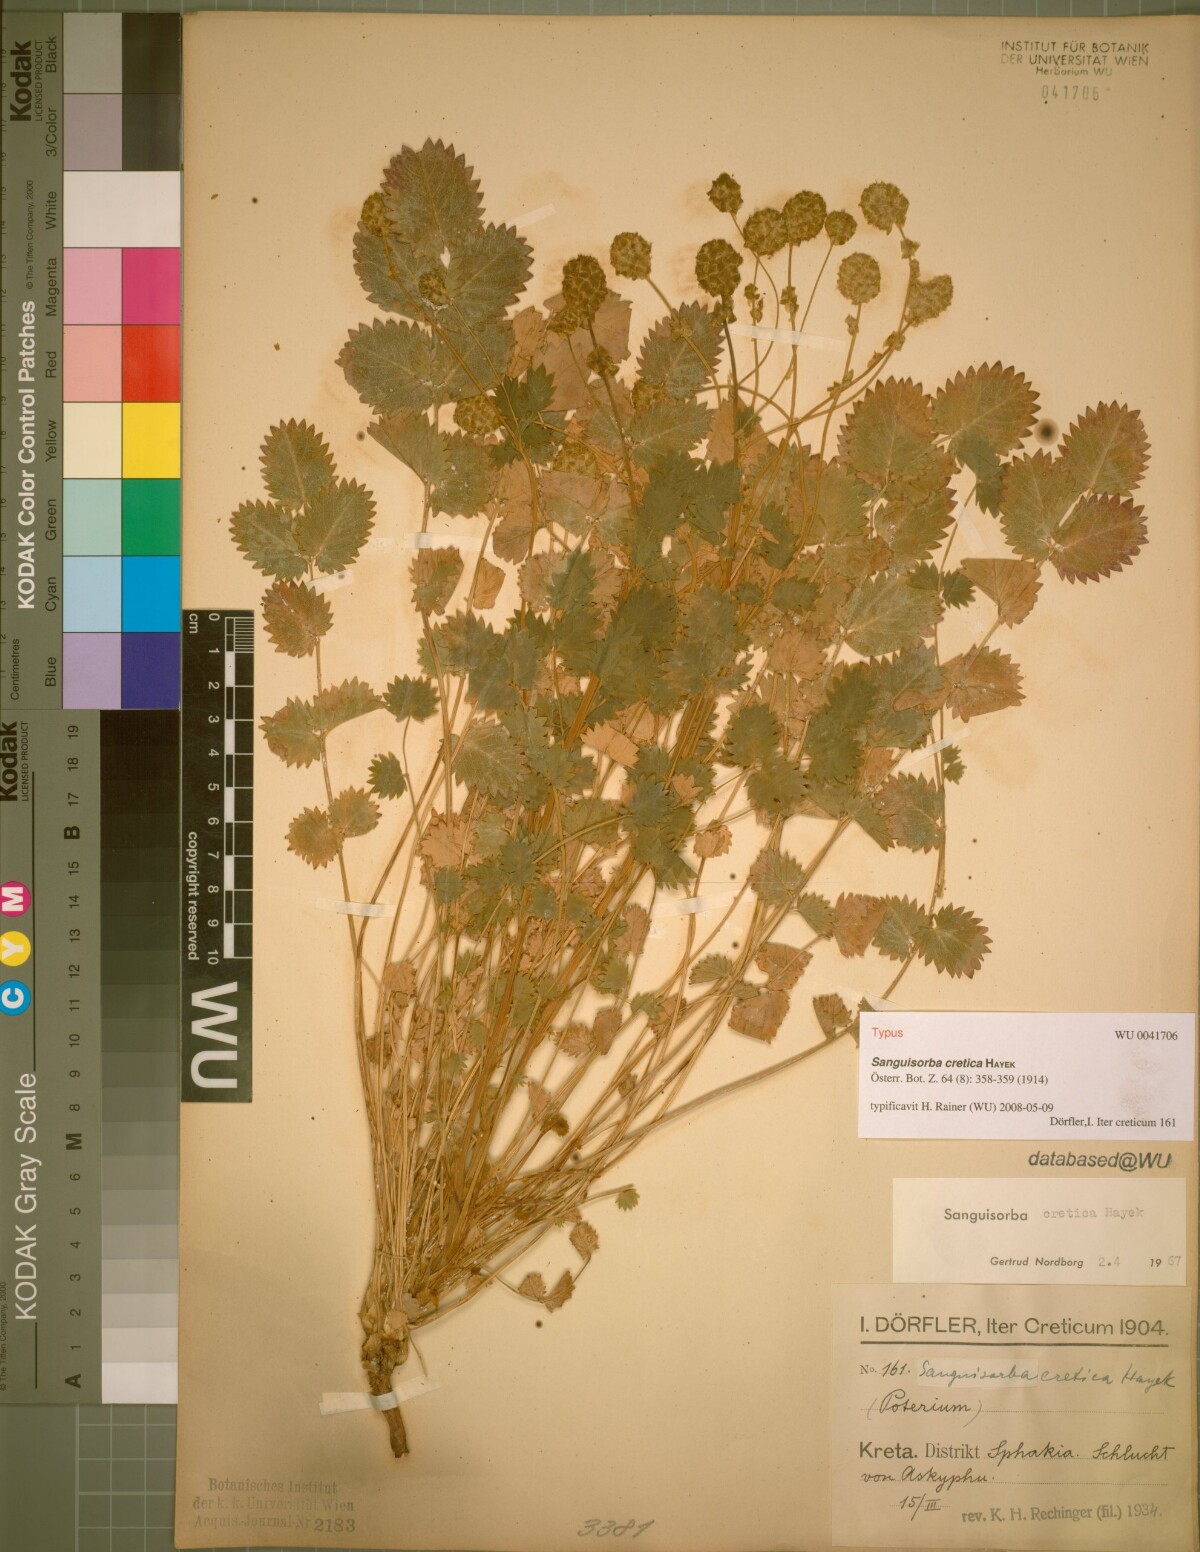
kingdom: Plantae
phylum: Tracheophyta
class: Magnoliopsida
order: Rosales
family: Rosaceae
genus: Poterium
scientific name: Poterium creticum
